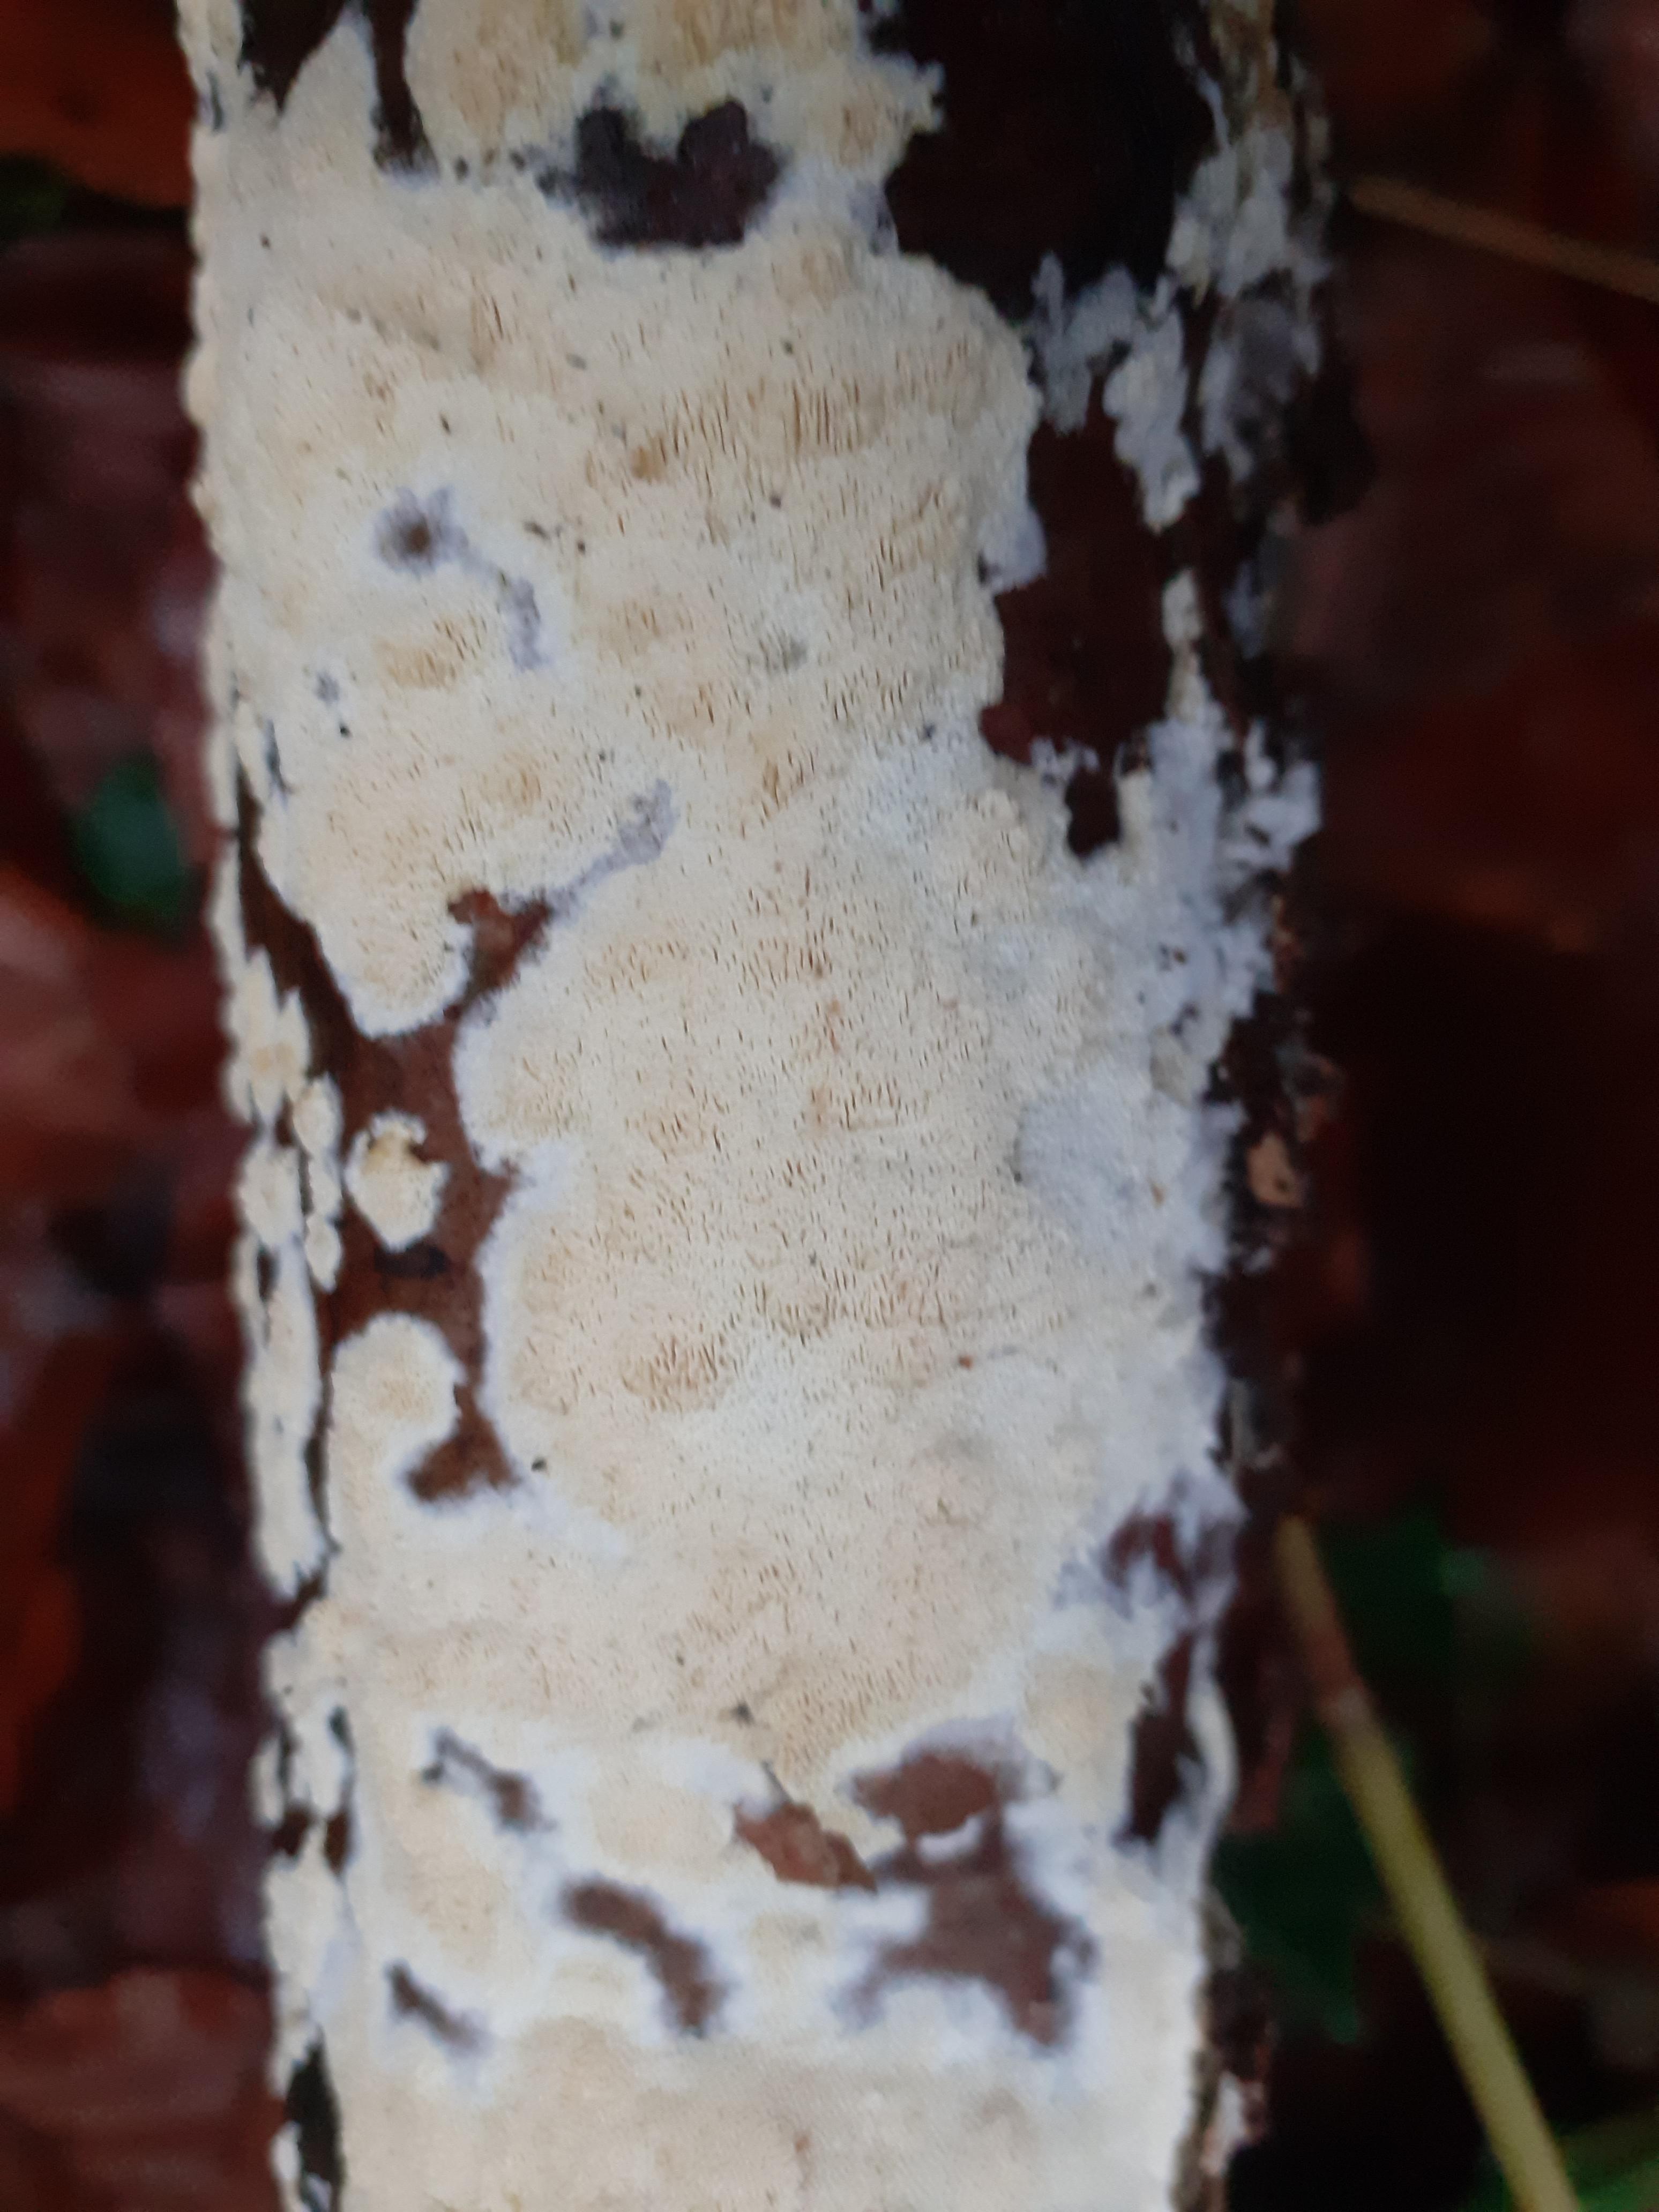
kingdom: Fungi
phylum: Basidiomycota
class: Agaricomycetes
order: Hymenochaetales
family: Schizoporaceae
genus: Xylodon
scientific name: Xylodon subtropicus
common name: labyrint-tandsvamp
